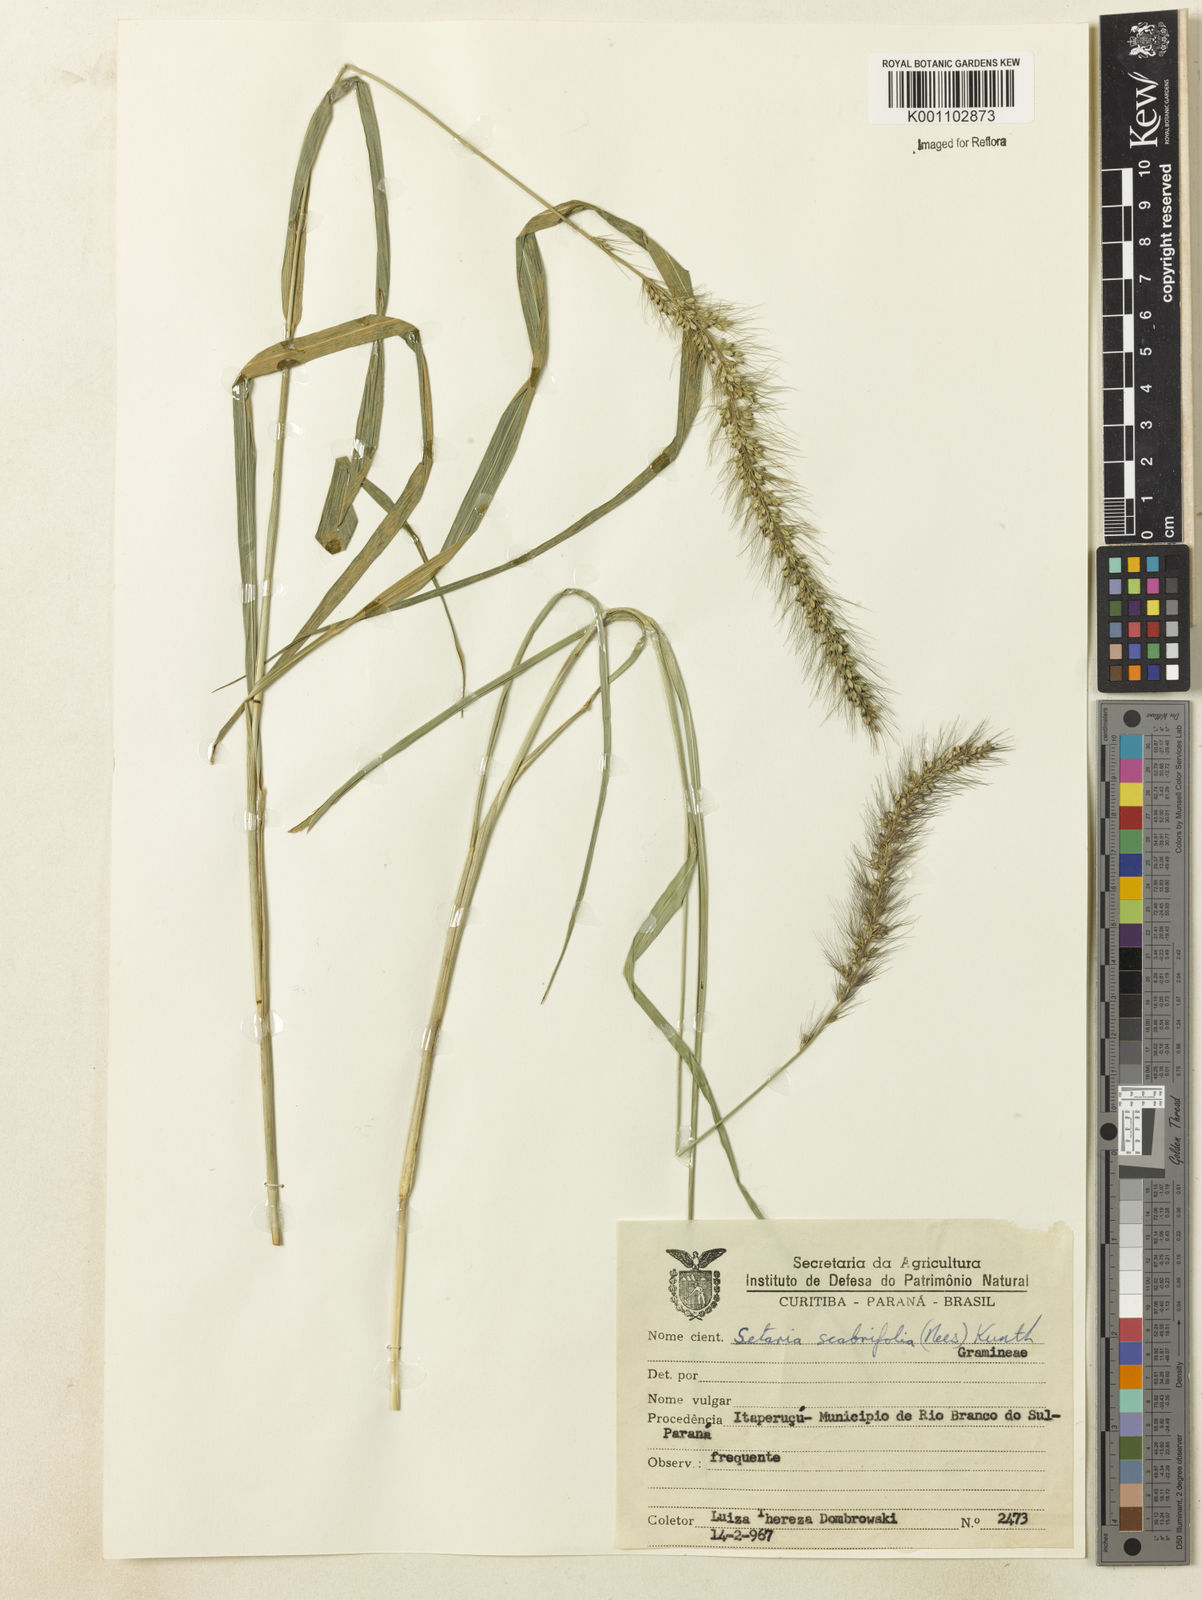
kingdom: Plantae
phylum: Tracheophyta
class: Liliopsida
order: Poales
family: Poaceae
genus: Setaria
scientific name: Setaria scabrifolia
